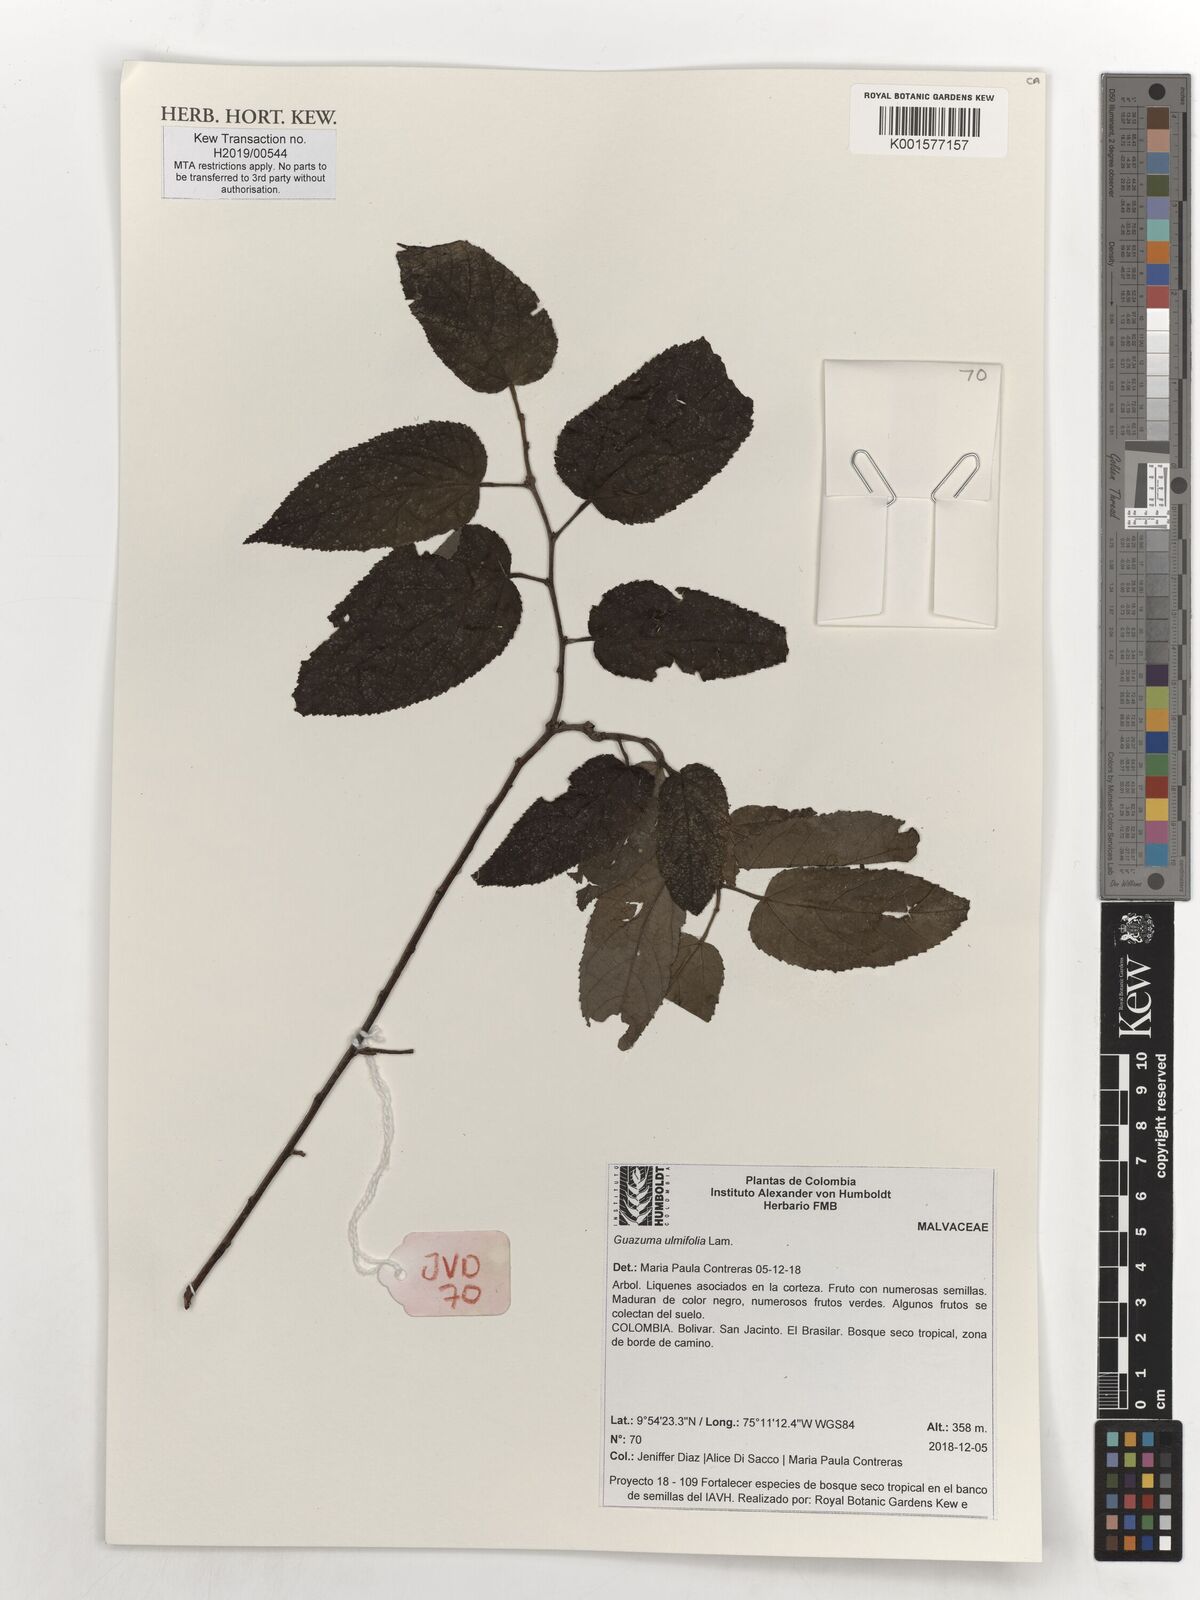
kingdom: Plantae
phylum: Tracheophyta
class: Magnoliopsida
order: Malvales
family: Malvaceae
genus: Guazuma
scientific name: Guazuma ulmifolia
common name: Bastard-cedar
